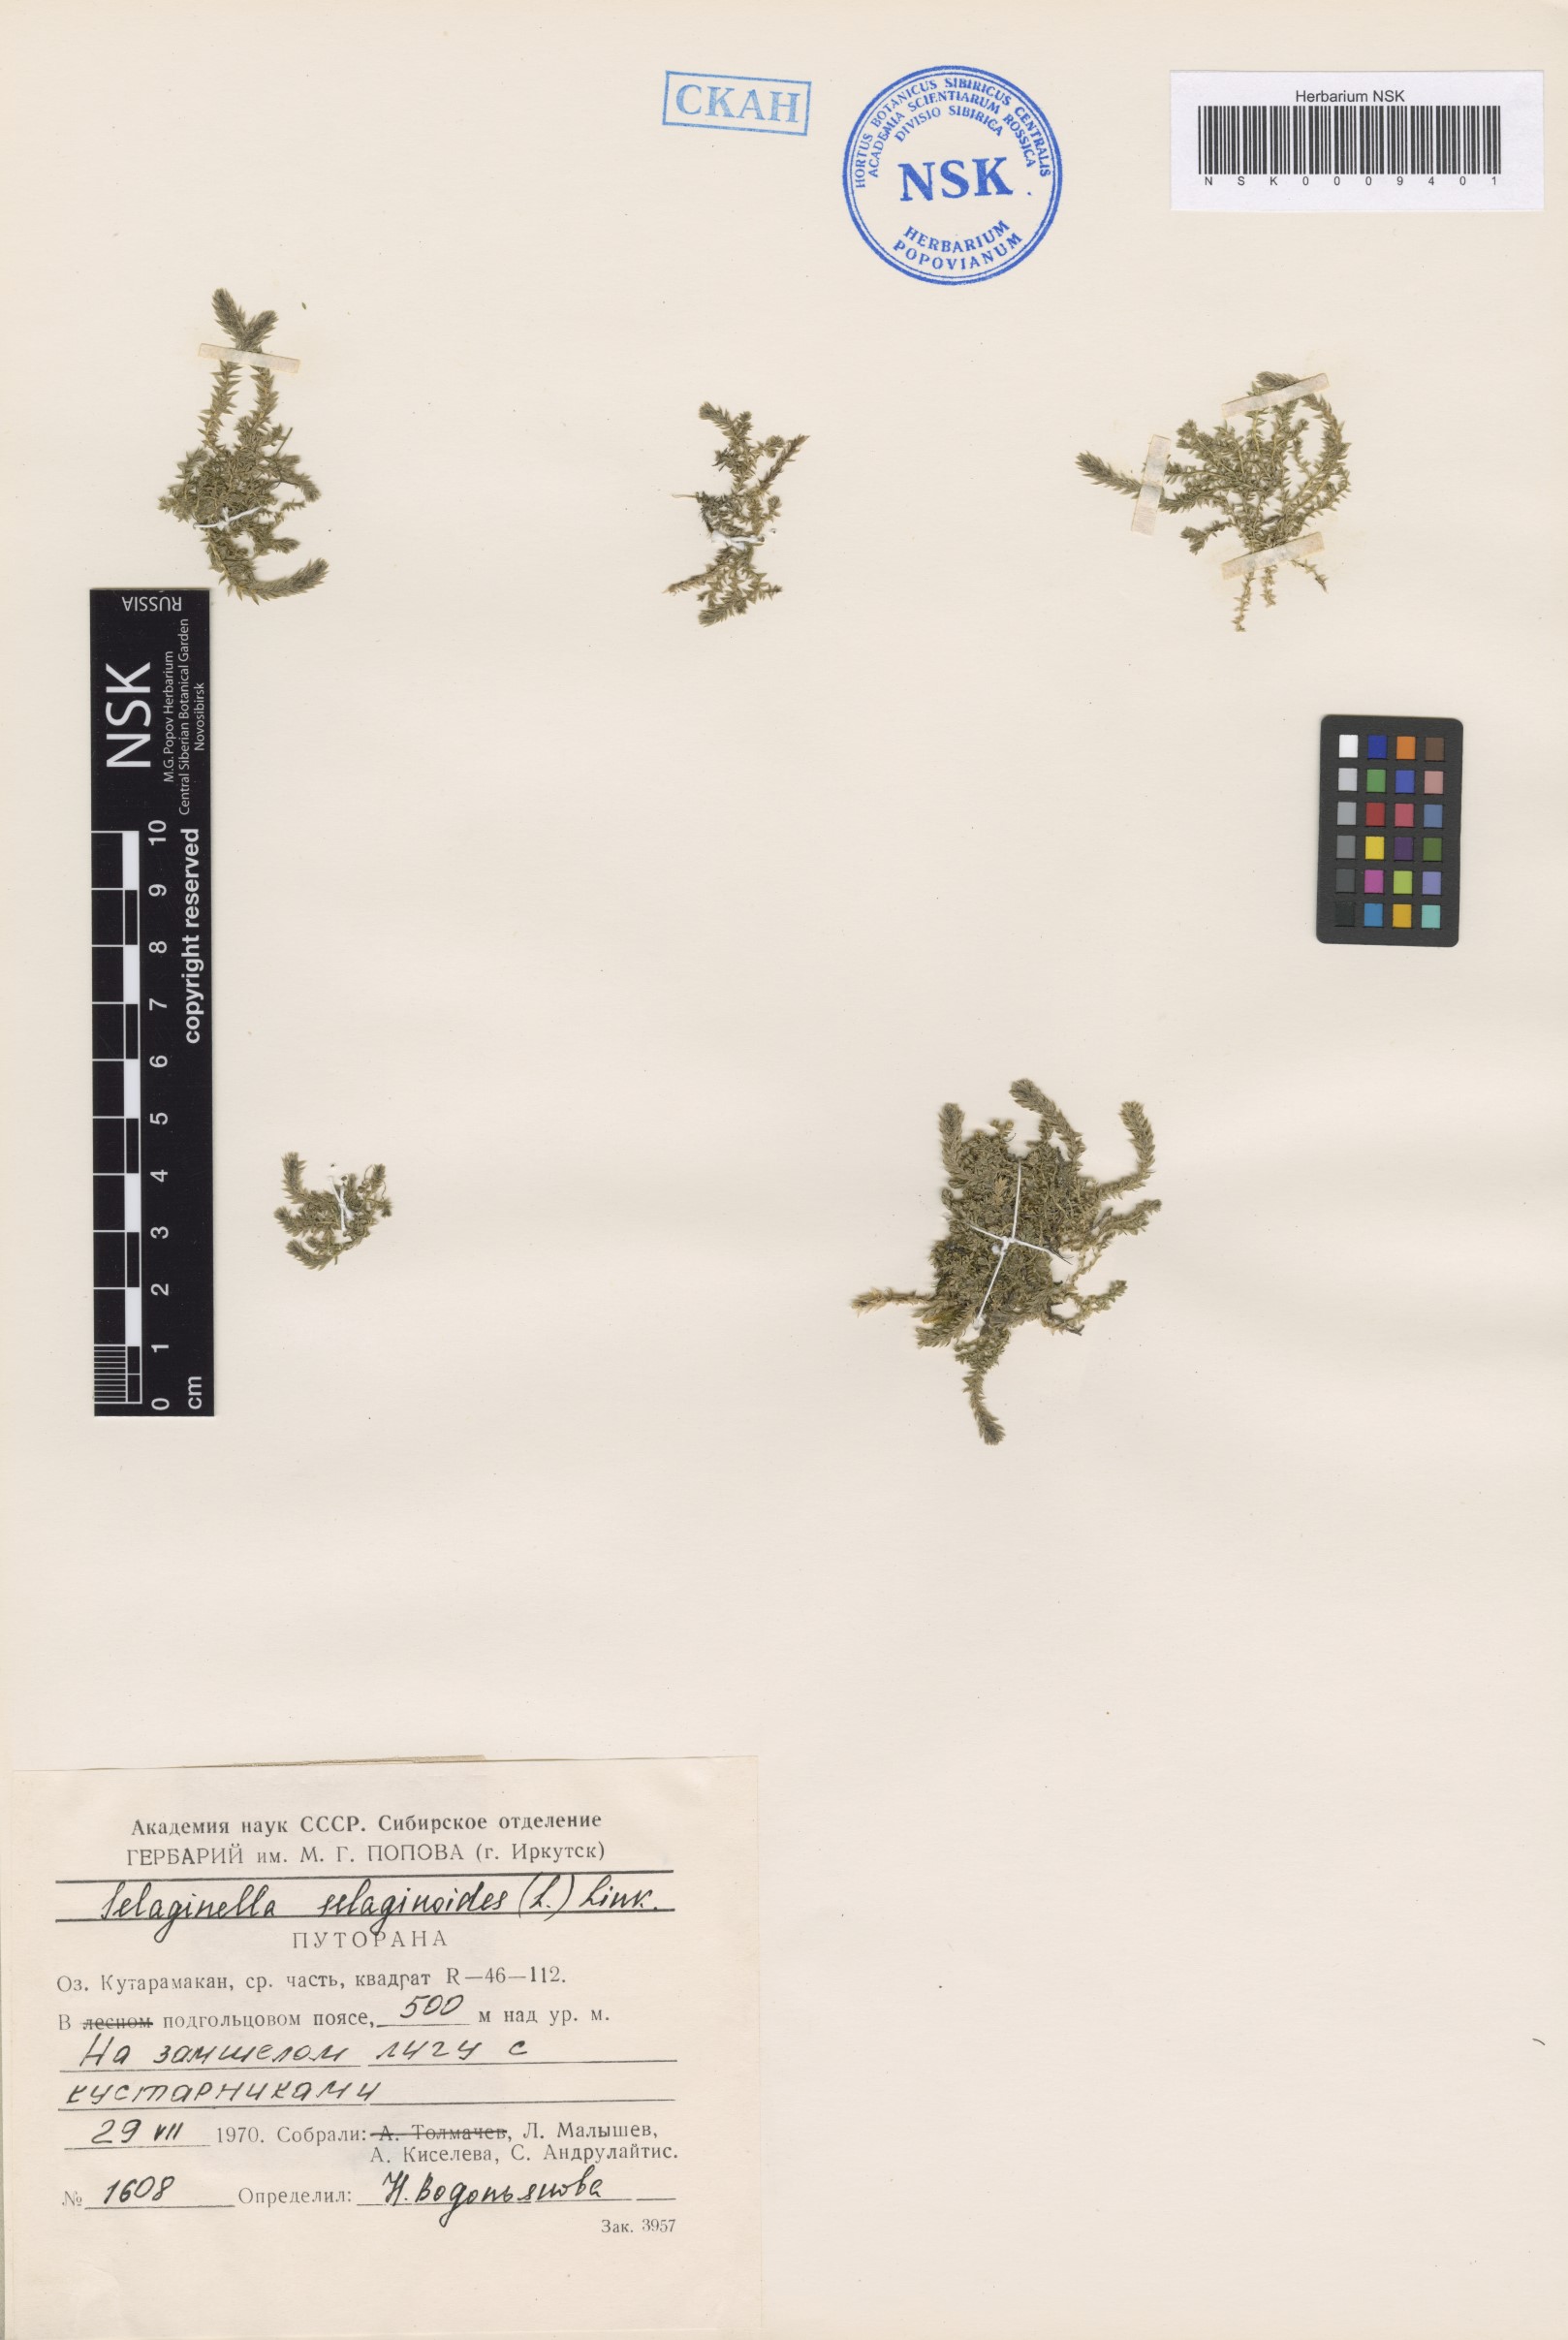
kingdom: Plantae
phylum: Tracheophyta
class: Lycopodiopsida
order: Selaginellales
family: Selaginellaceae
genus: Selaginella
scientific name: Selaginella selaginoides
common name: Prickly mountain-moss
